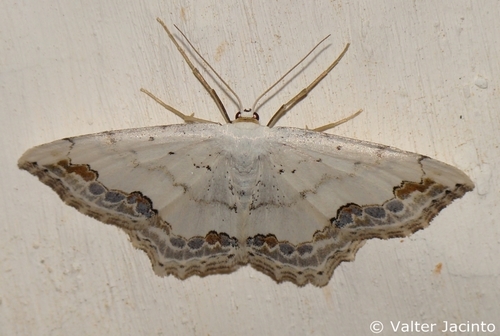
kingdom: Animalia
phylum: Arthropoda
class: Insecta
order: Lepidoptera
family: Geometridae
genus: Scopula
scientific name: Scopula ornata
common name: Lace border
